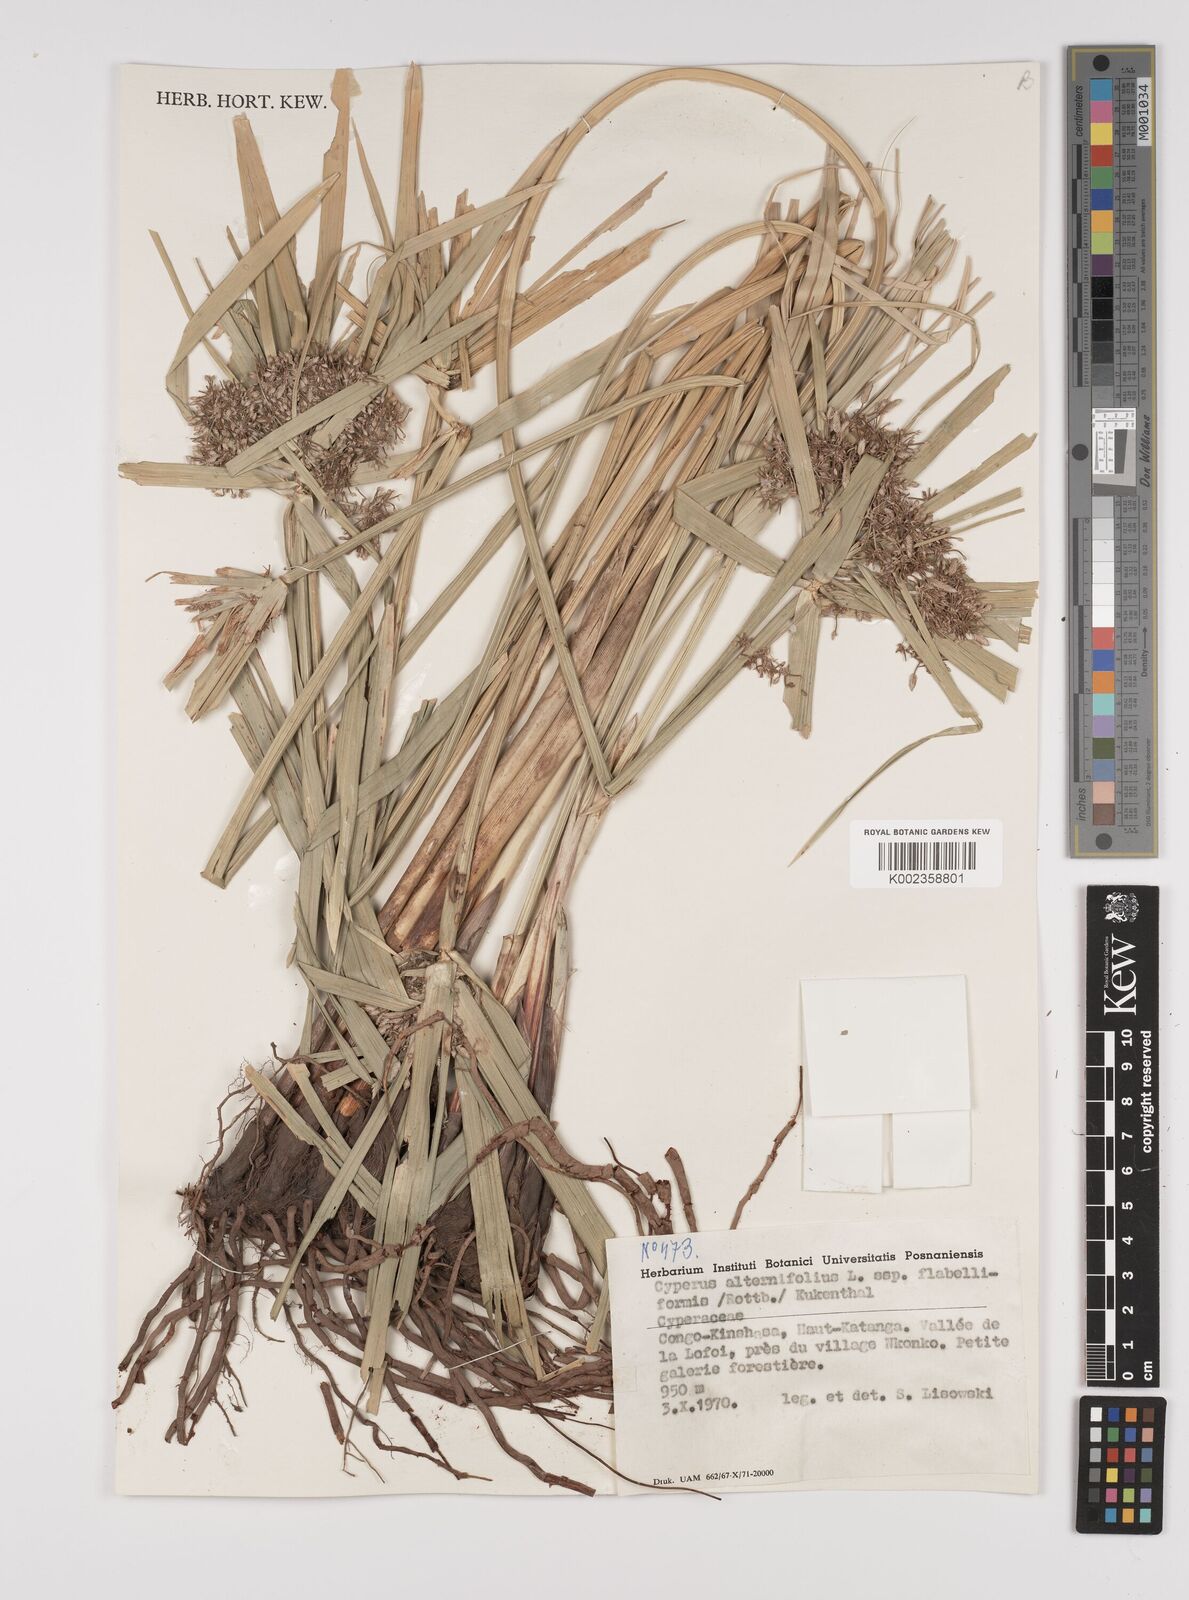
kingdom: Plantae
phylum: Tracheophyta
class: Liliopsida
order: Poales
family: Cyperaceae
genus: Cyperus
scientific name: Cyperus alternifolius
